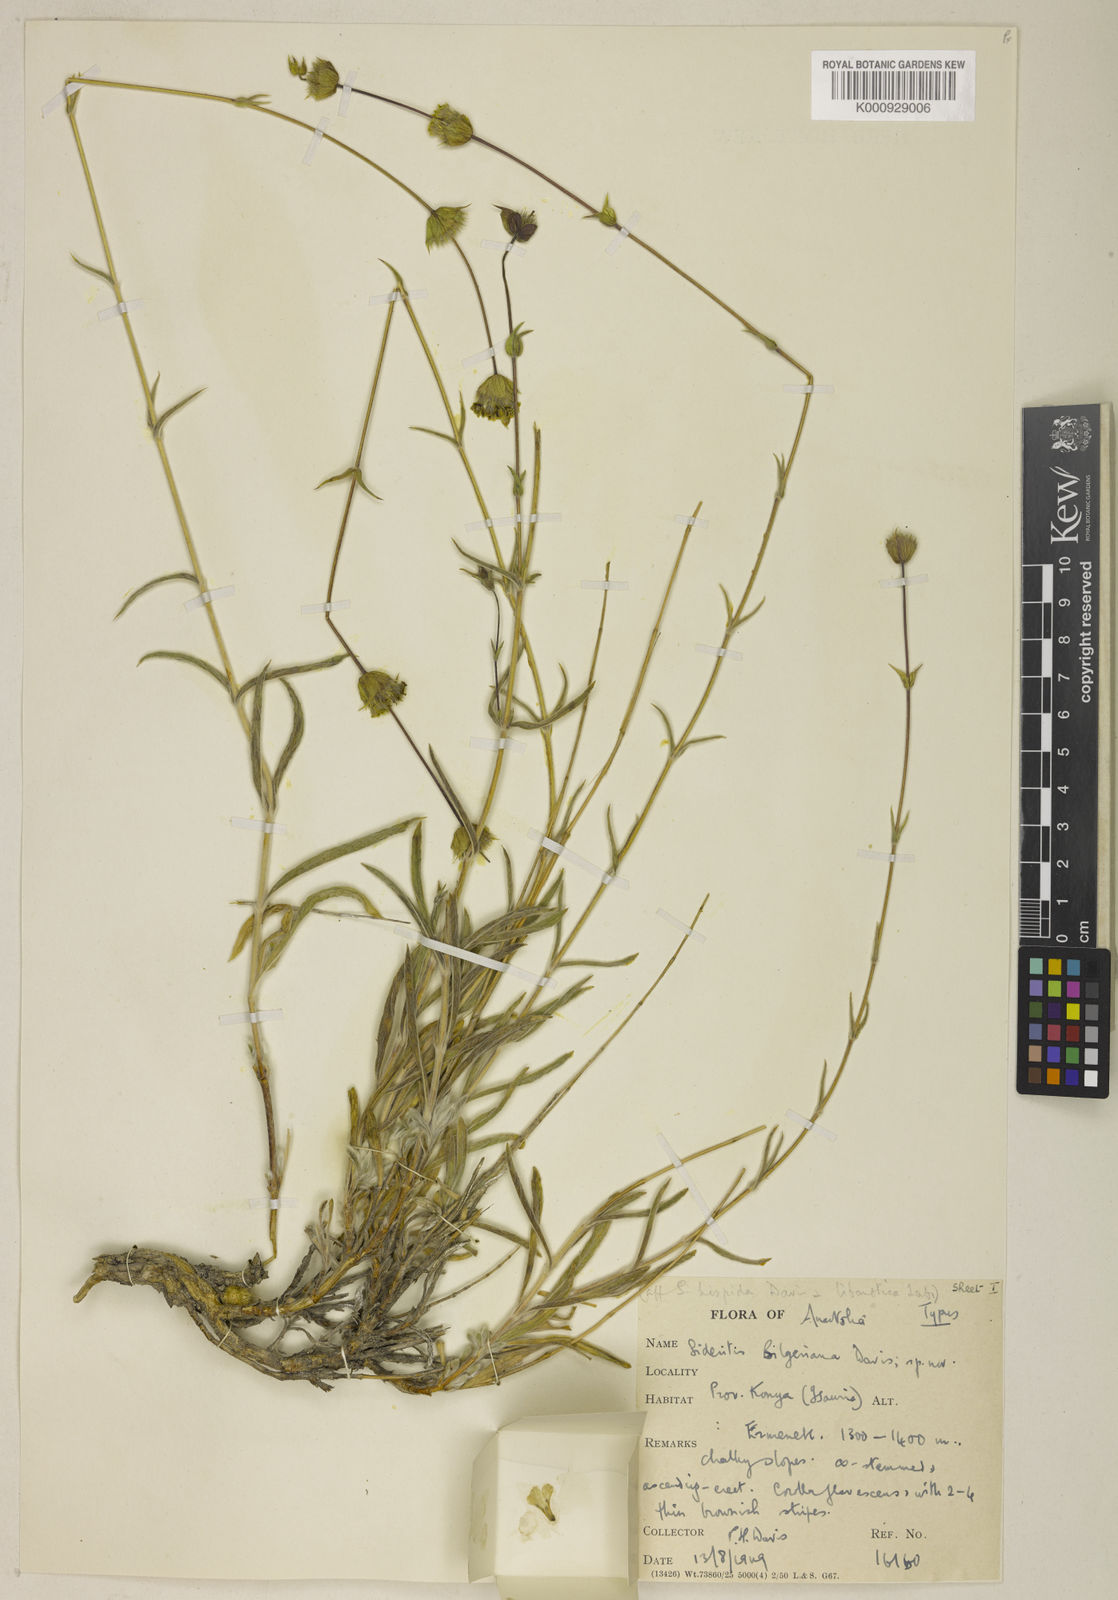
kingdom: Plantae
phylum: Tracheophyta
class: Magnoliopsida
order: Lamiales
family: Lamiaceae
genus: Sideritis
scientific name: Sideritis bilgeriana
